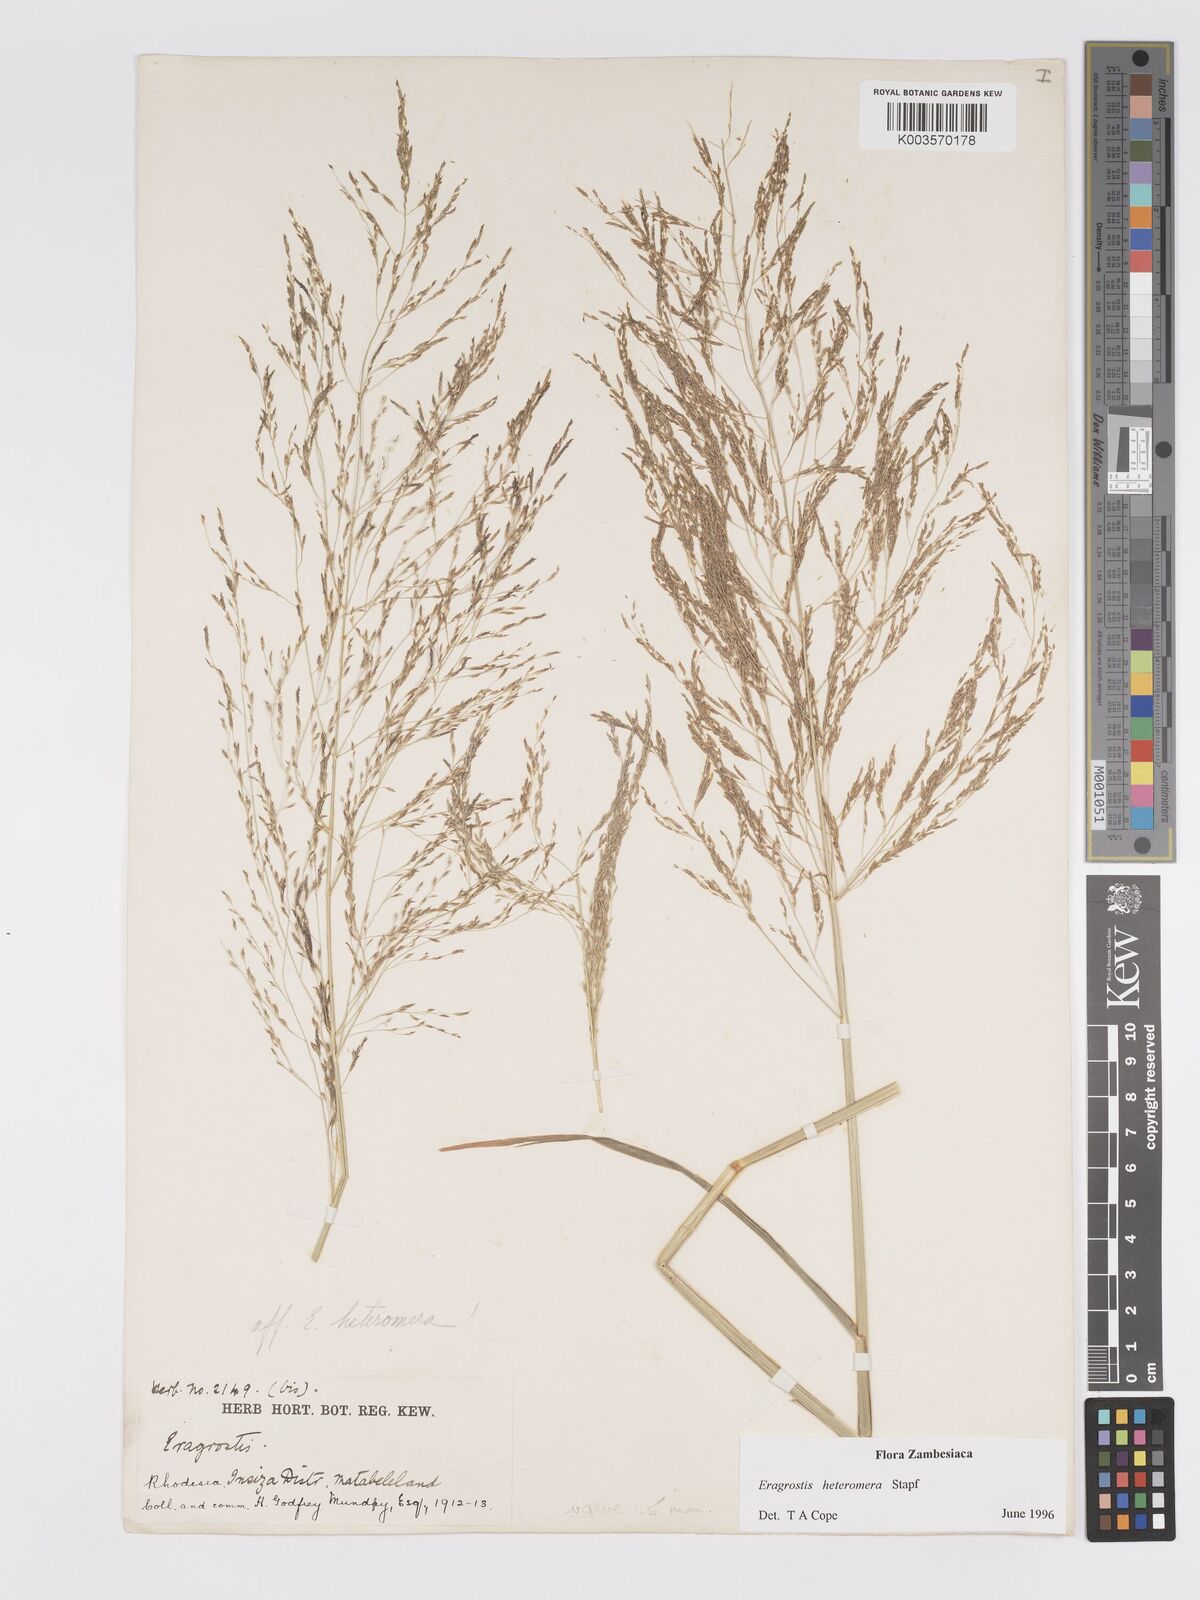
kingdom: Plantae
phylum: Tracheophyta
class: Liliopsida
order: Poales
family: Poaceae
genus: Eragrostis
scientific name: Eragrostis heteromera
